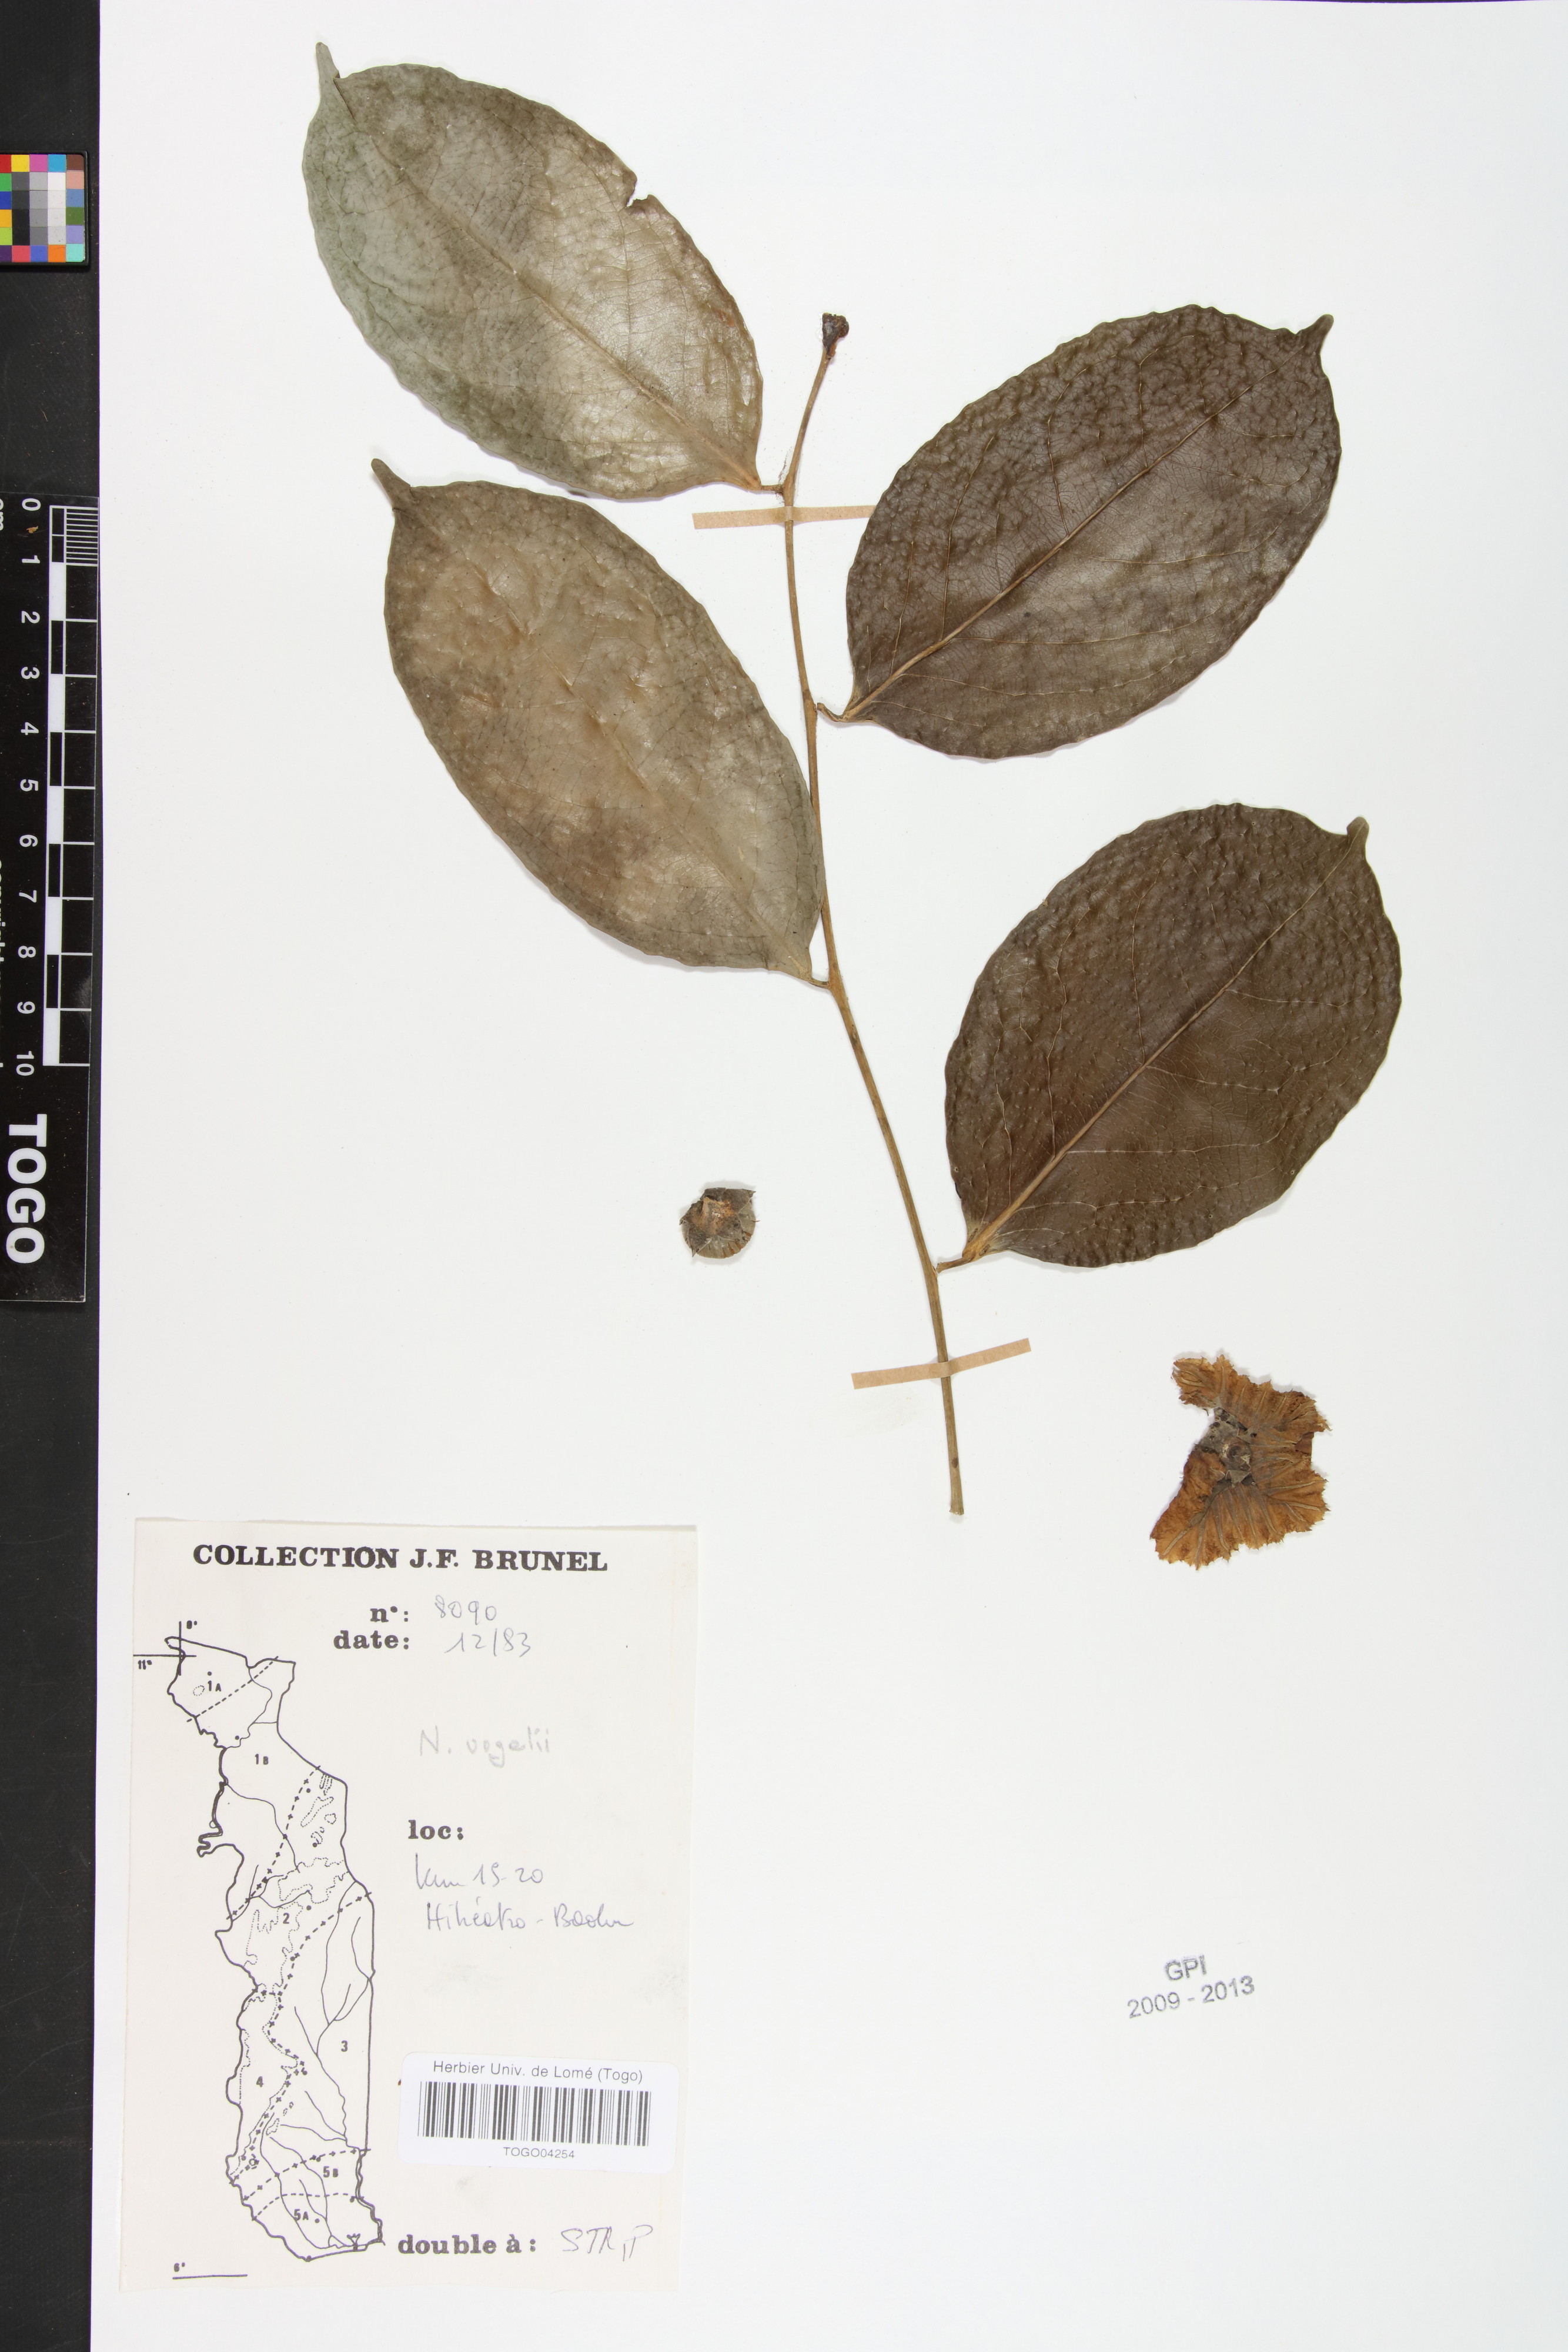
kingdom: Plantae
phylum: Tracheophyta
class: Magnoliopsida
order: Ericales
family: Lecythidaceae
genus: Napoleonaea
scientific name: Napoleonaea vogelii
